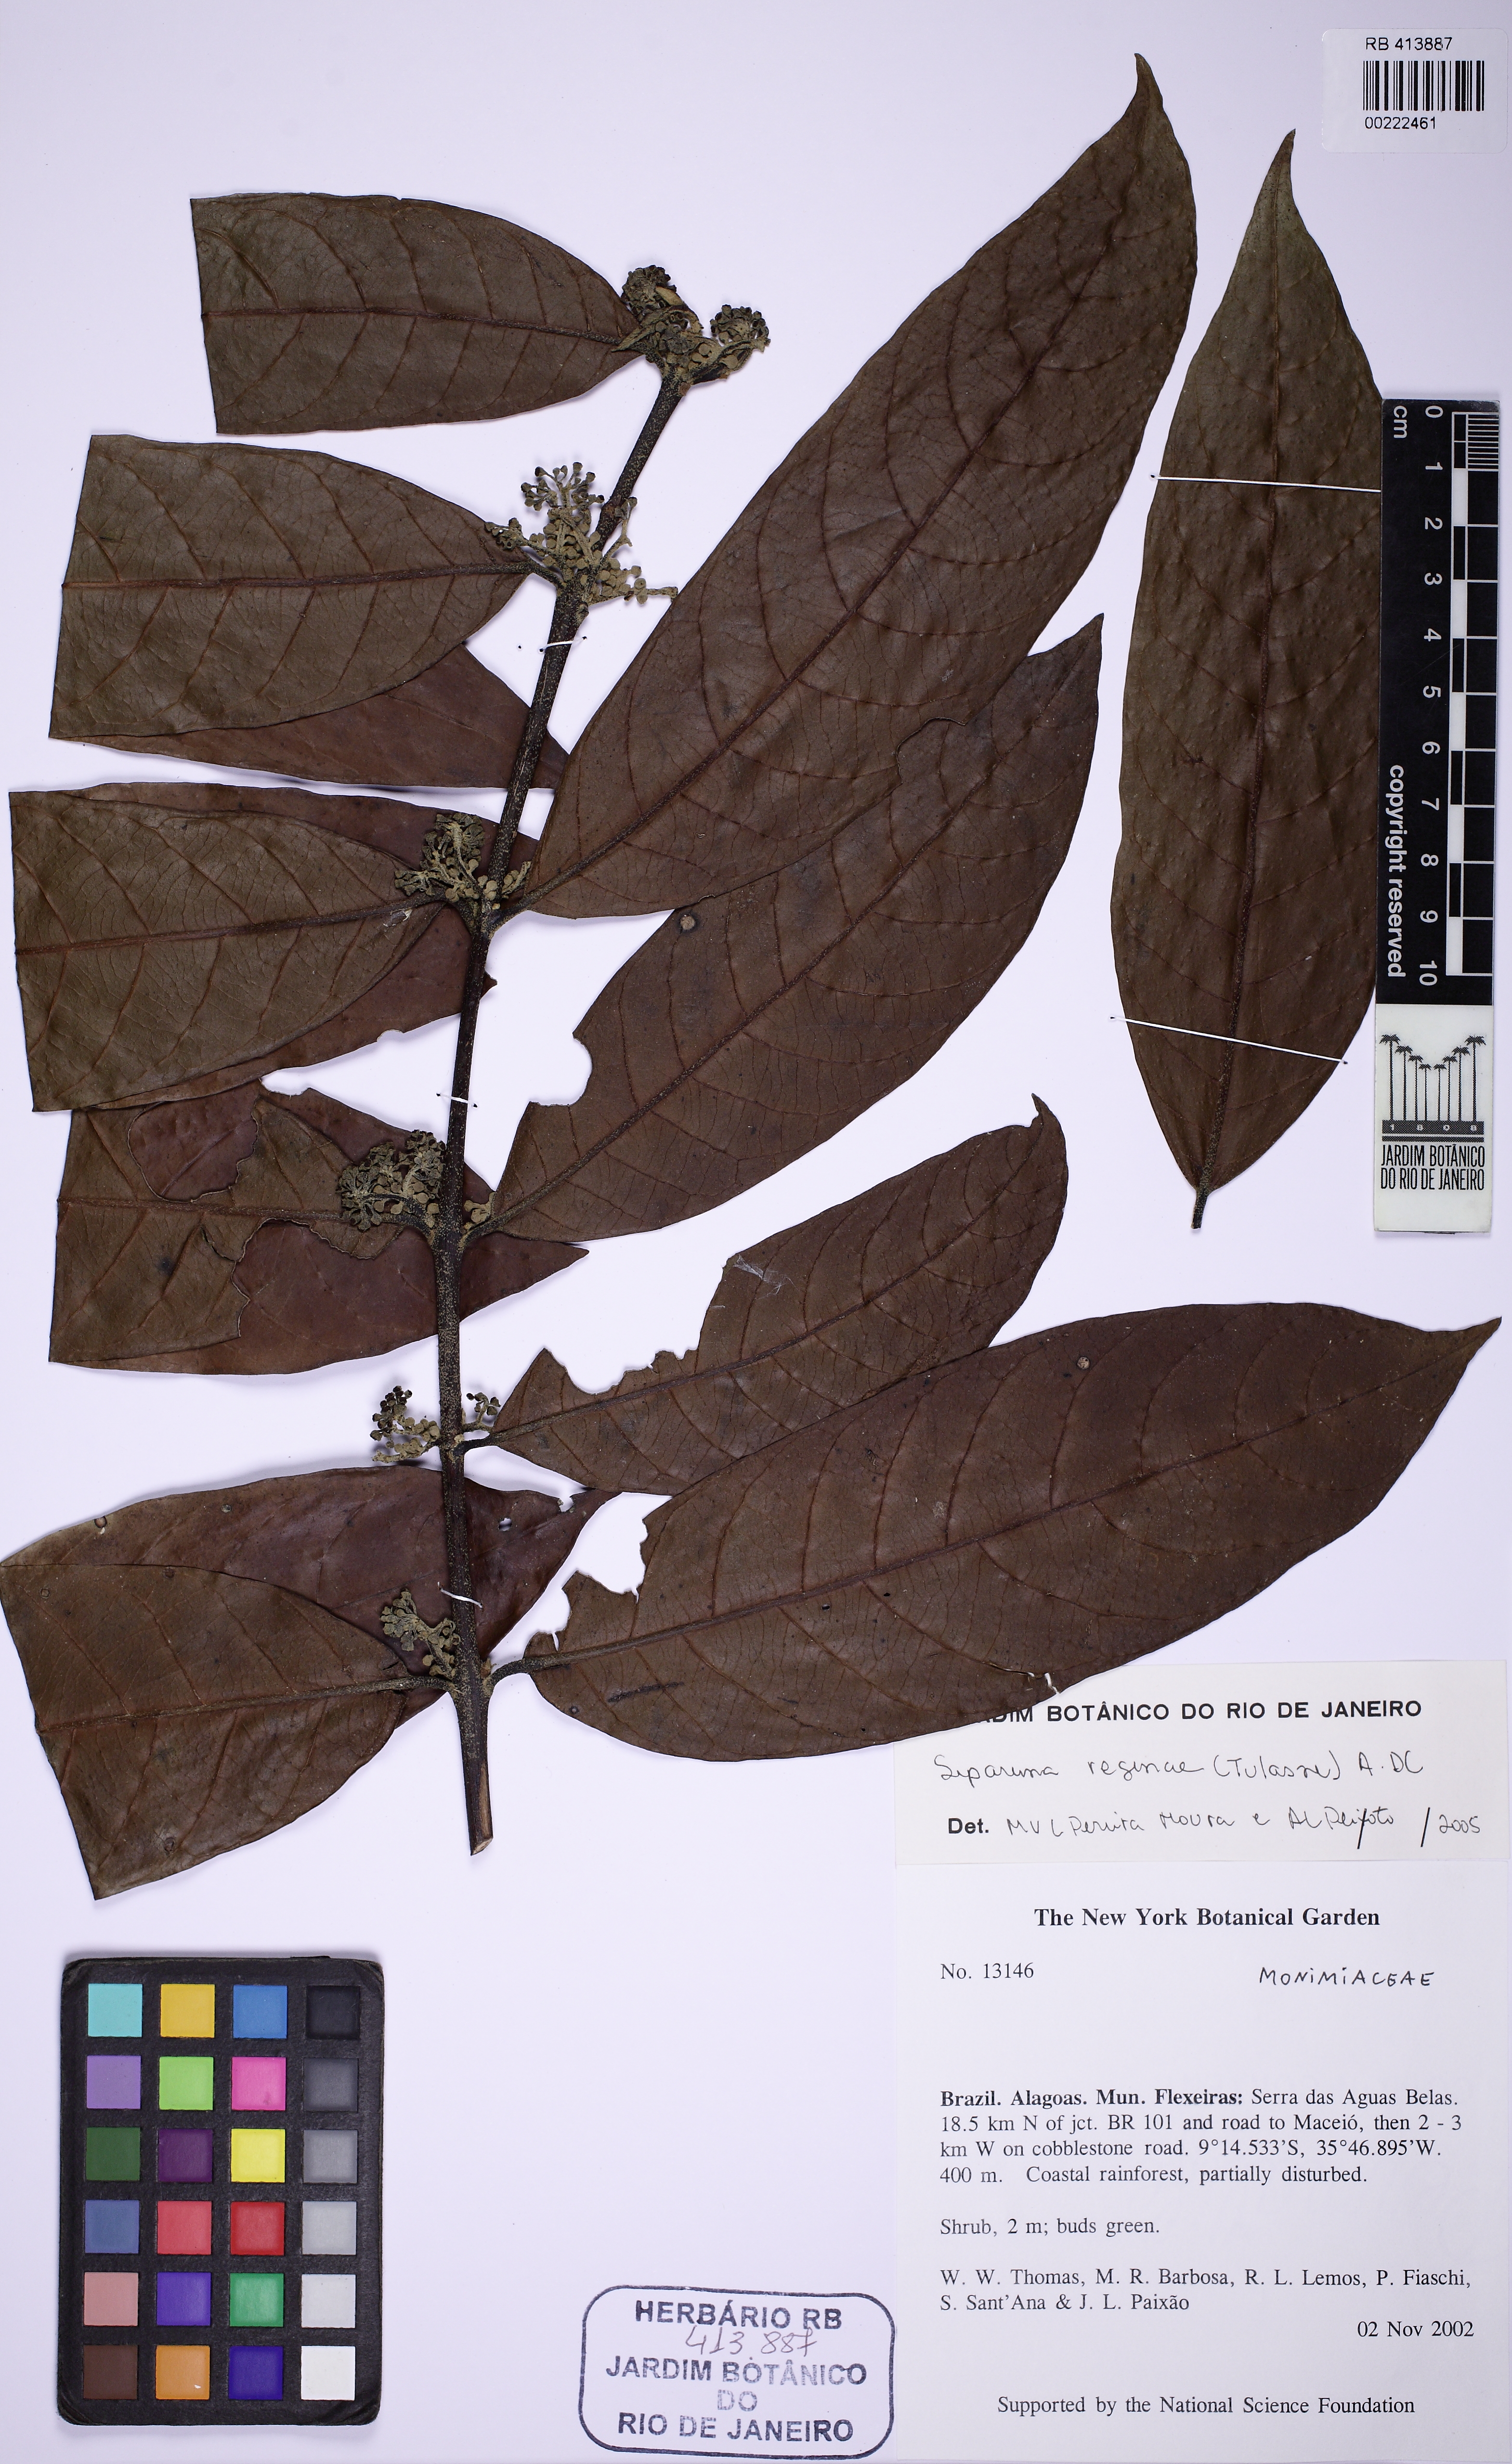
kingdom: Plantae
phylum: Tracheophyta
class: Magnoliopsida
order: Laurales
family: Siparunaceae
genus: Siparuna
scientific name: Siparuna reginae
